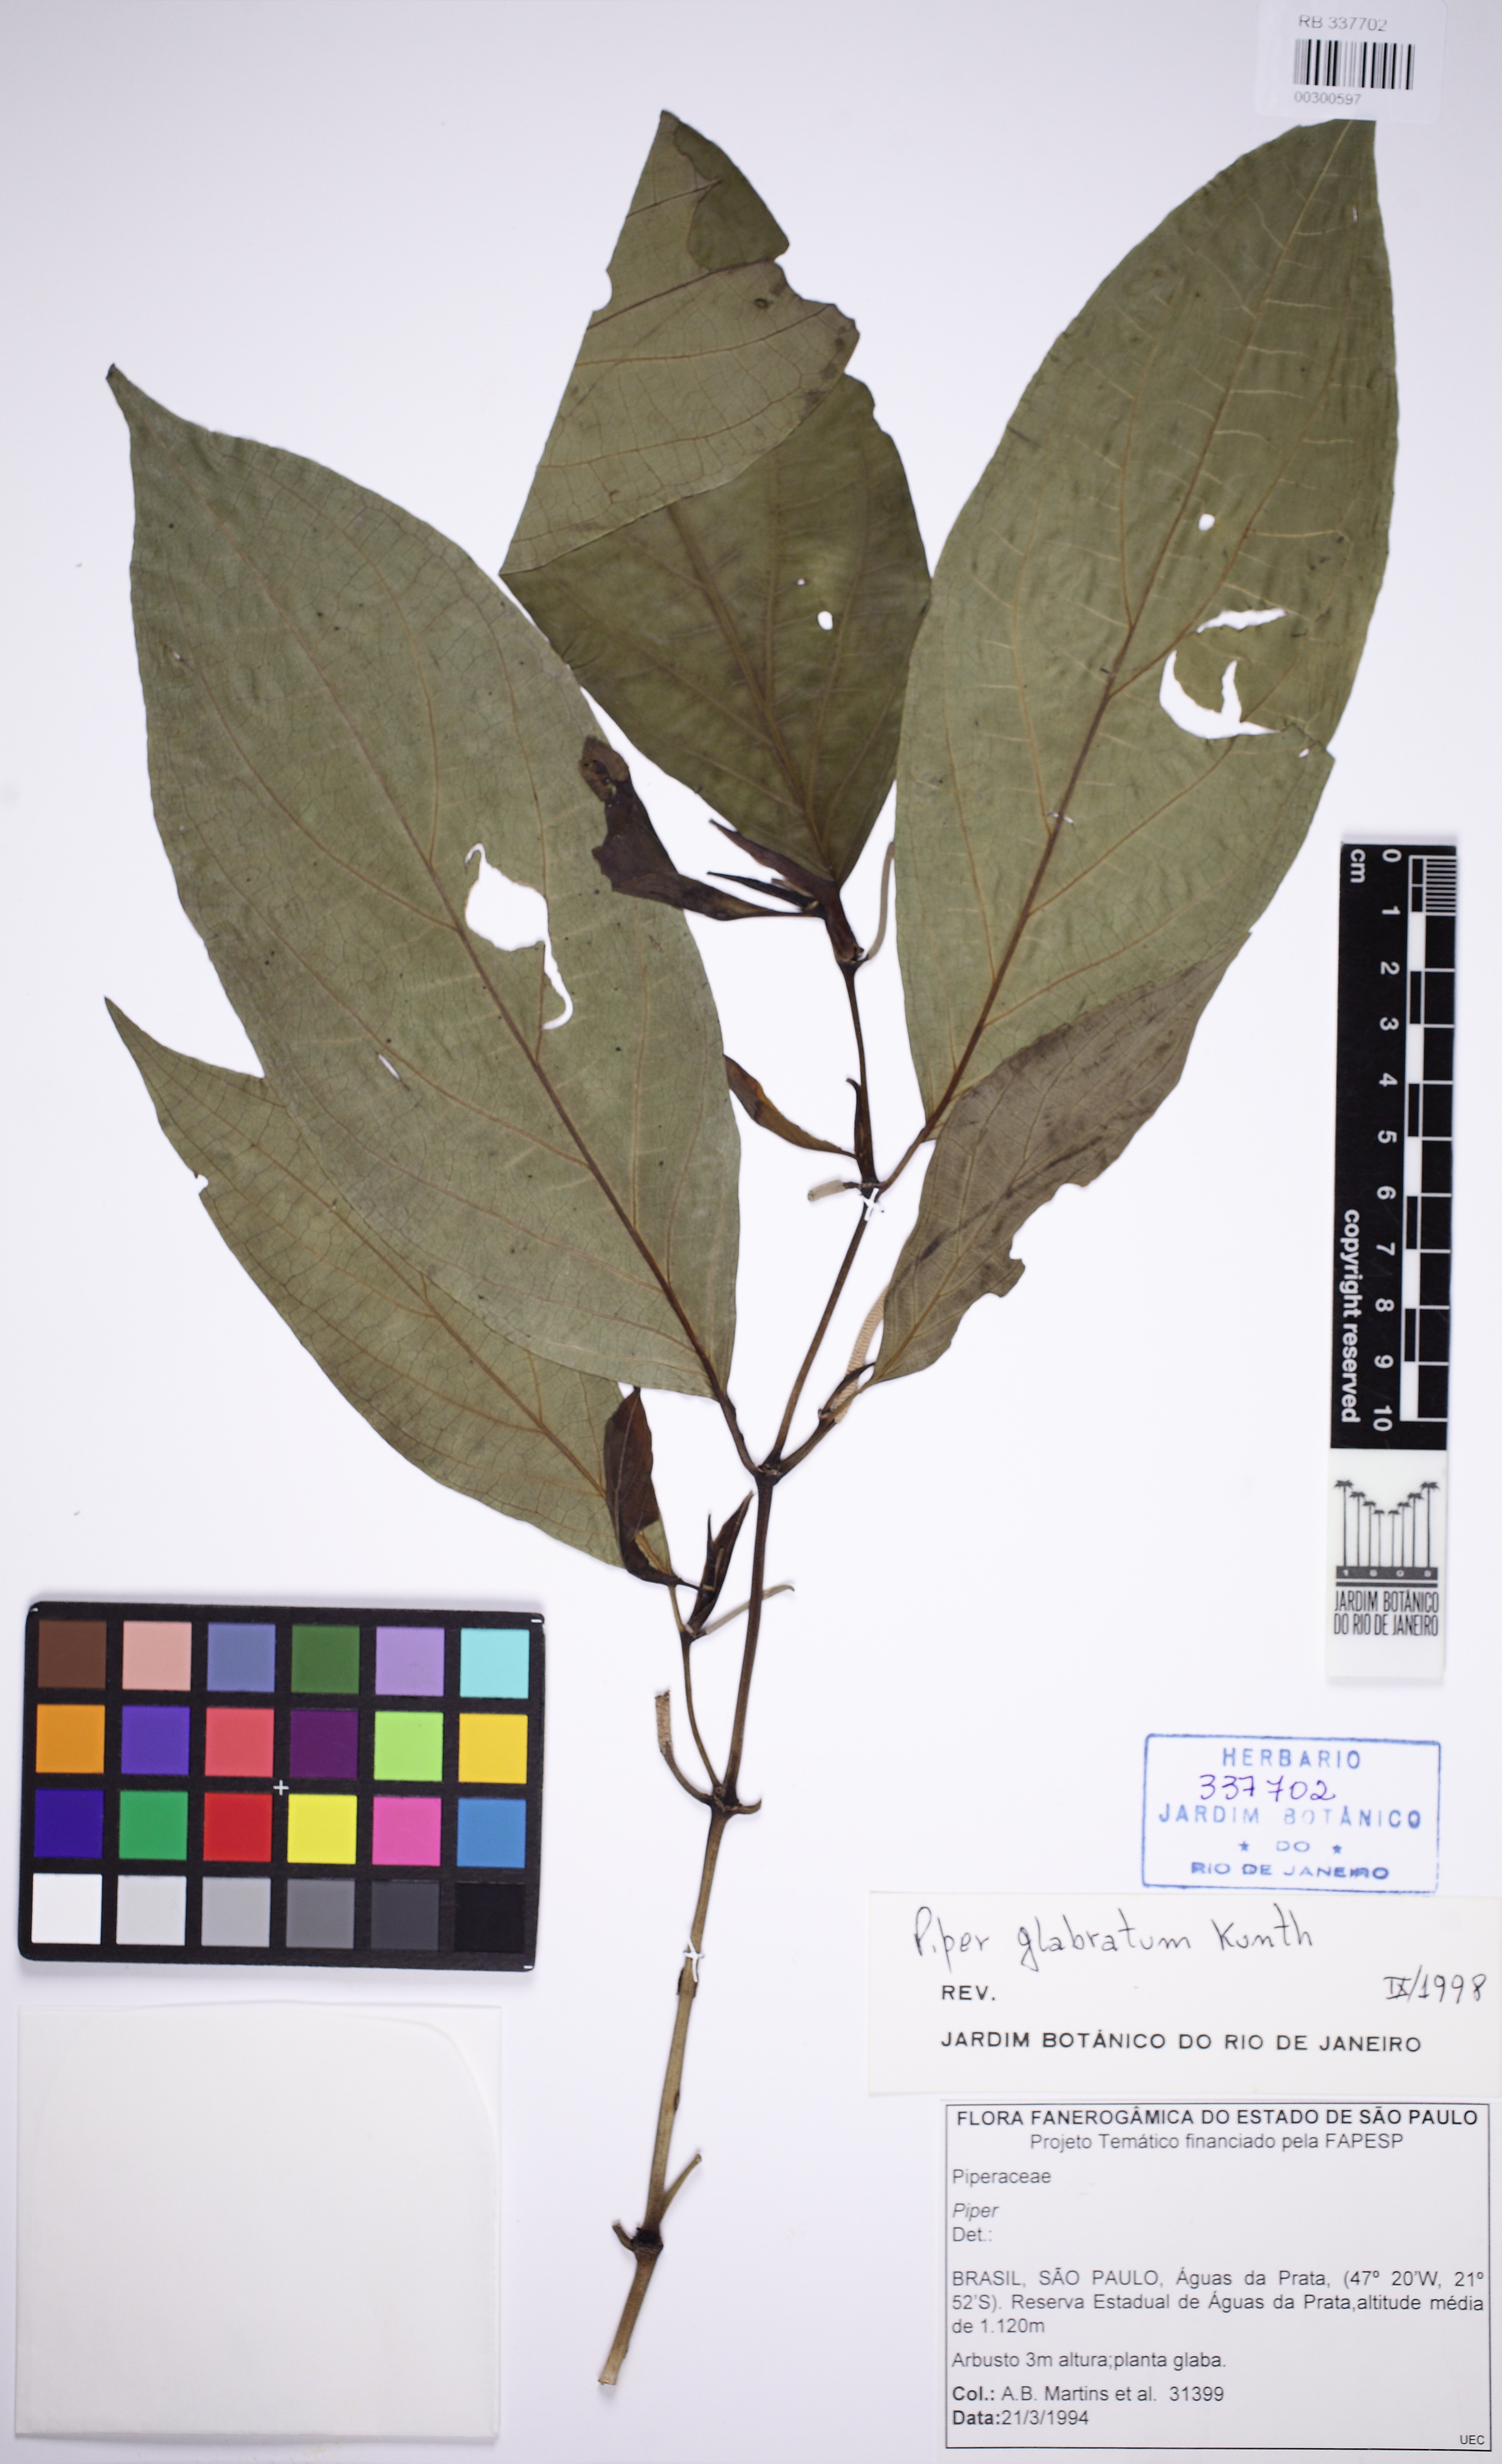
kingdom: Plantae
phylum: Tracheophyta
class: Magnoliopsida
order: Piperales
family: Piperaceae
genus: Piper
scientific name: Piper glabratum
